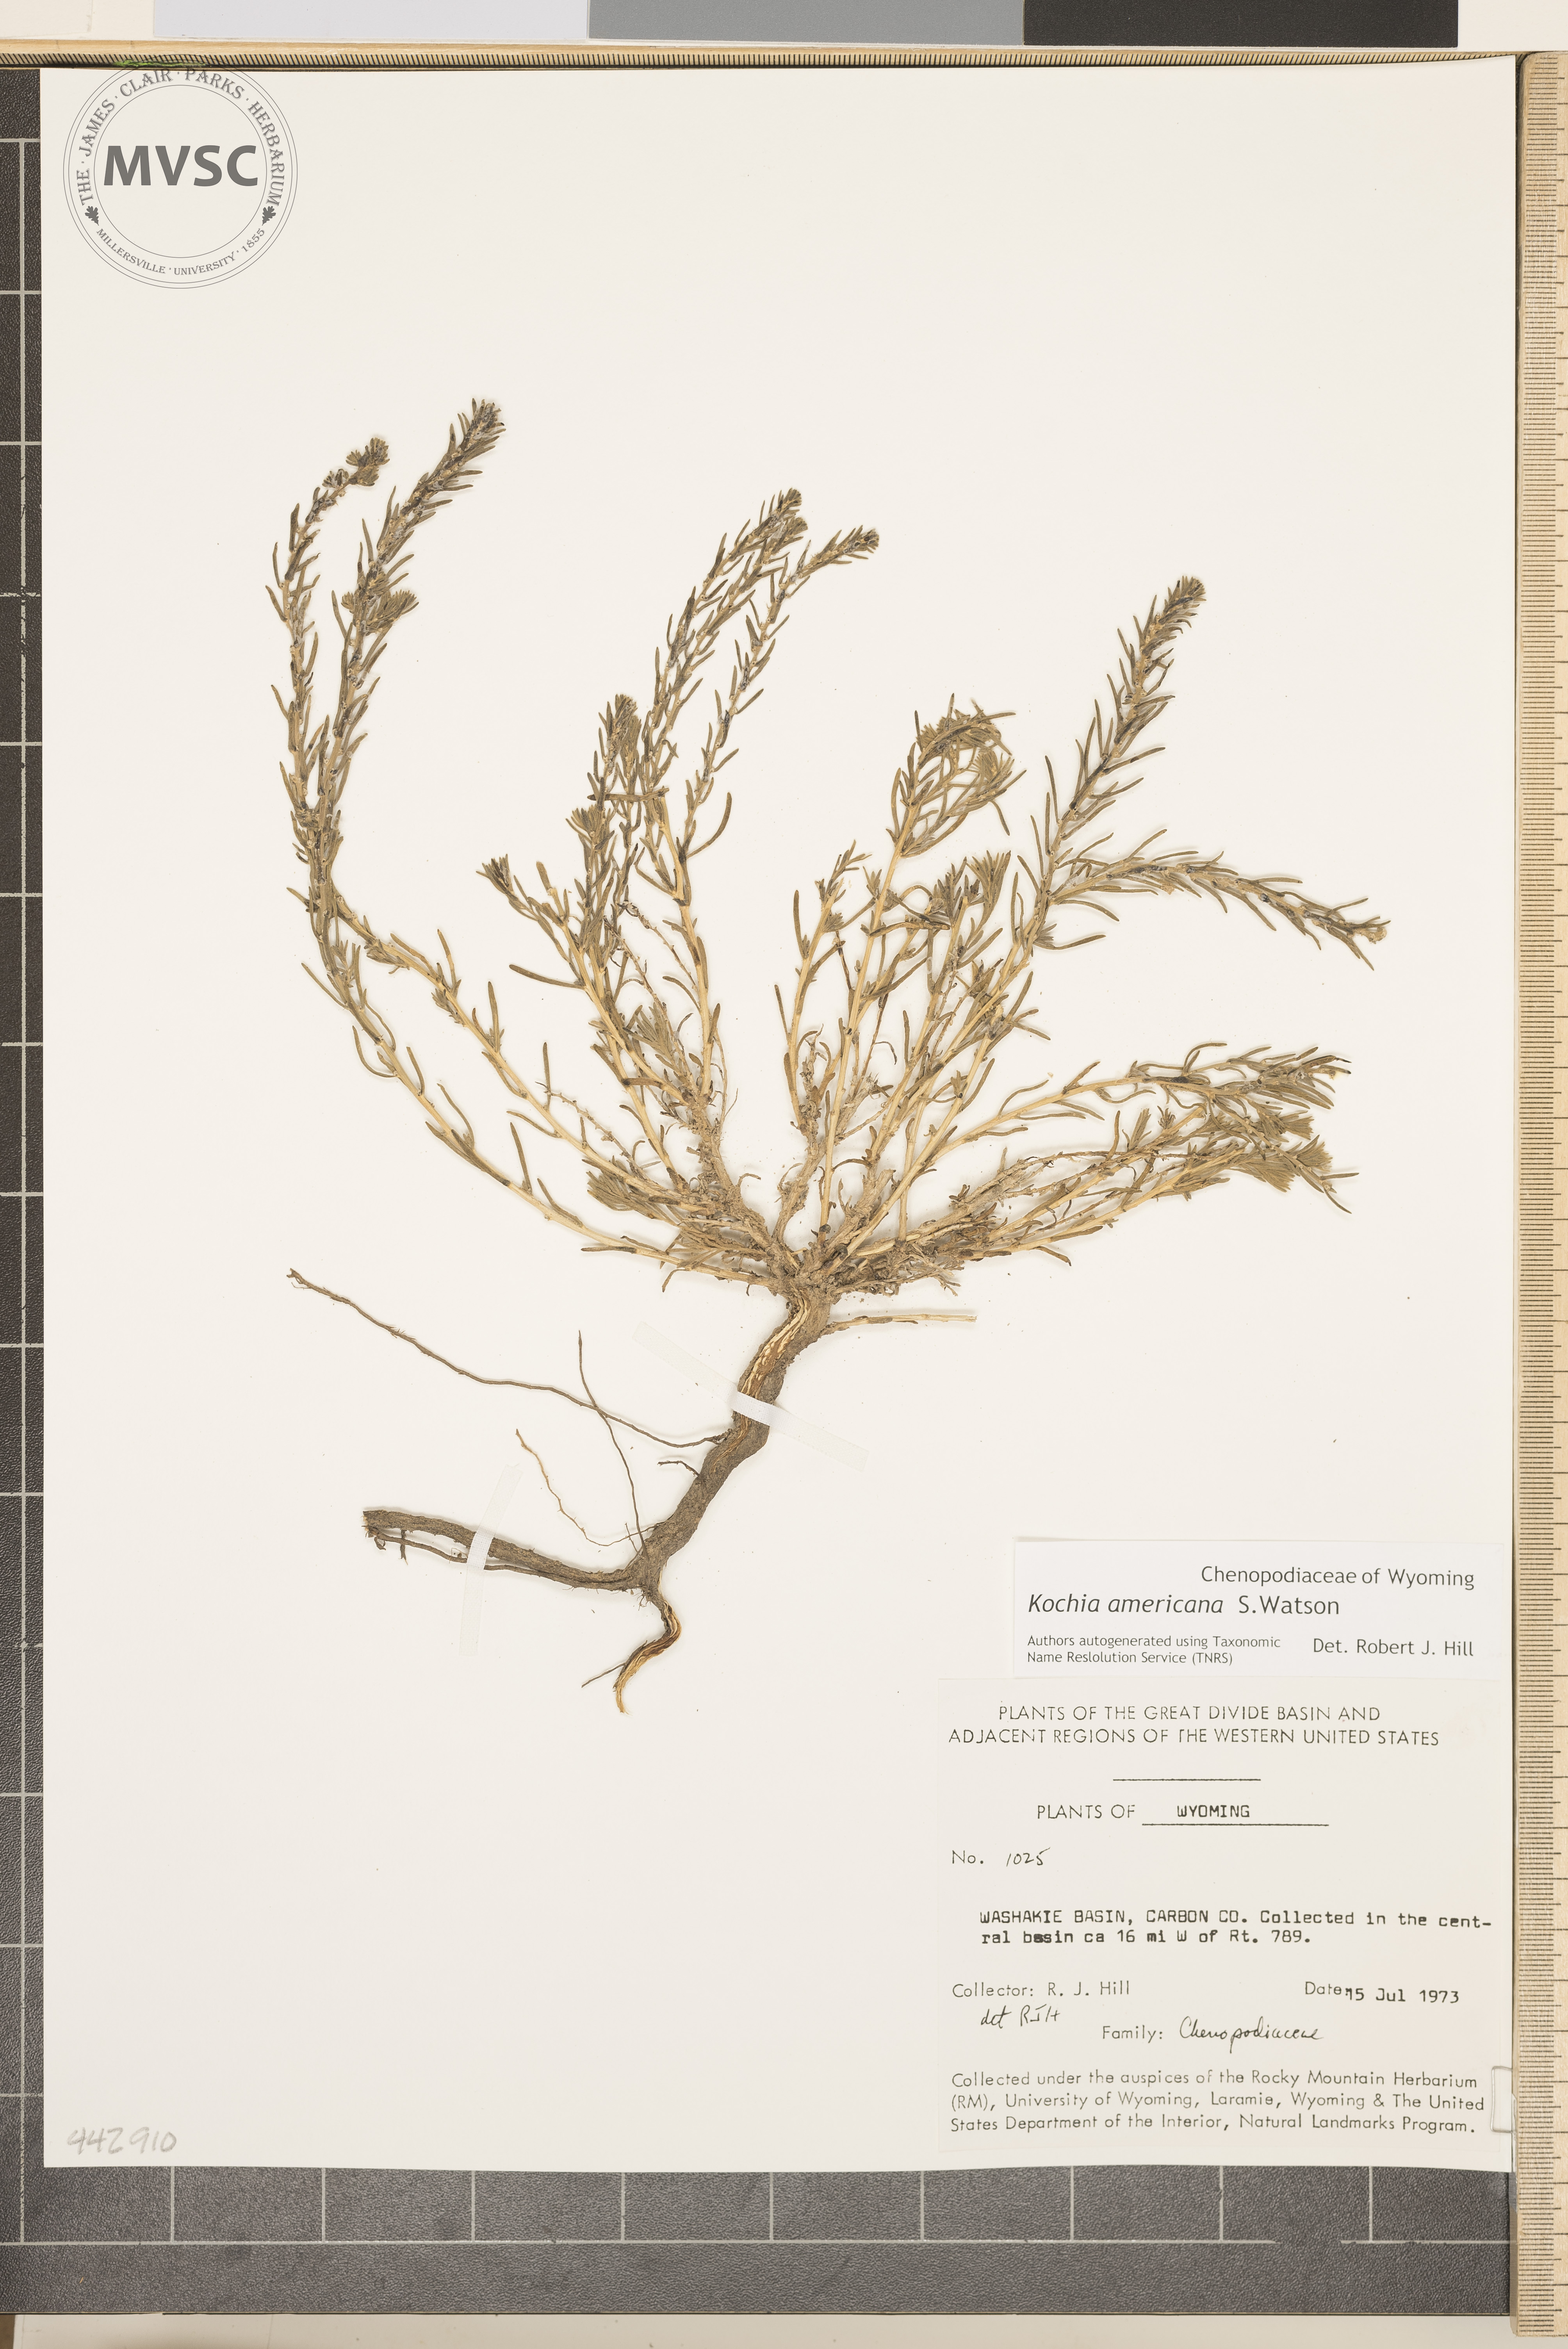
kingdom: Plantae
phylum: Tracheophyta
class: Magnoliopsida
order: Caryophyllales
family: Amaranthaceae
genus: Neokochia
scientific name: Neokochia americana
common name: Perennial summer-cypress
